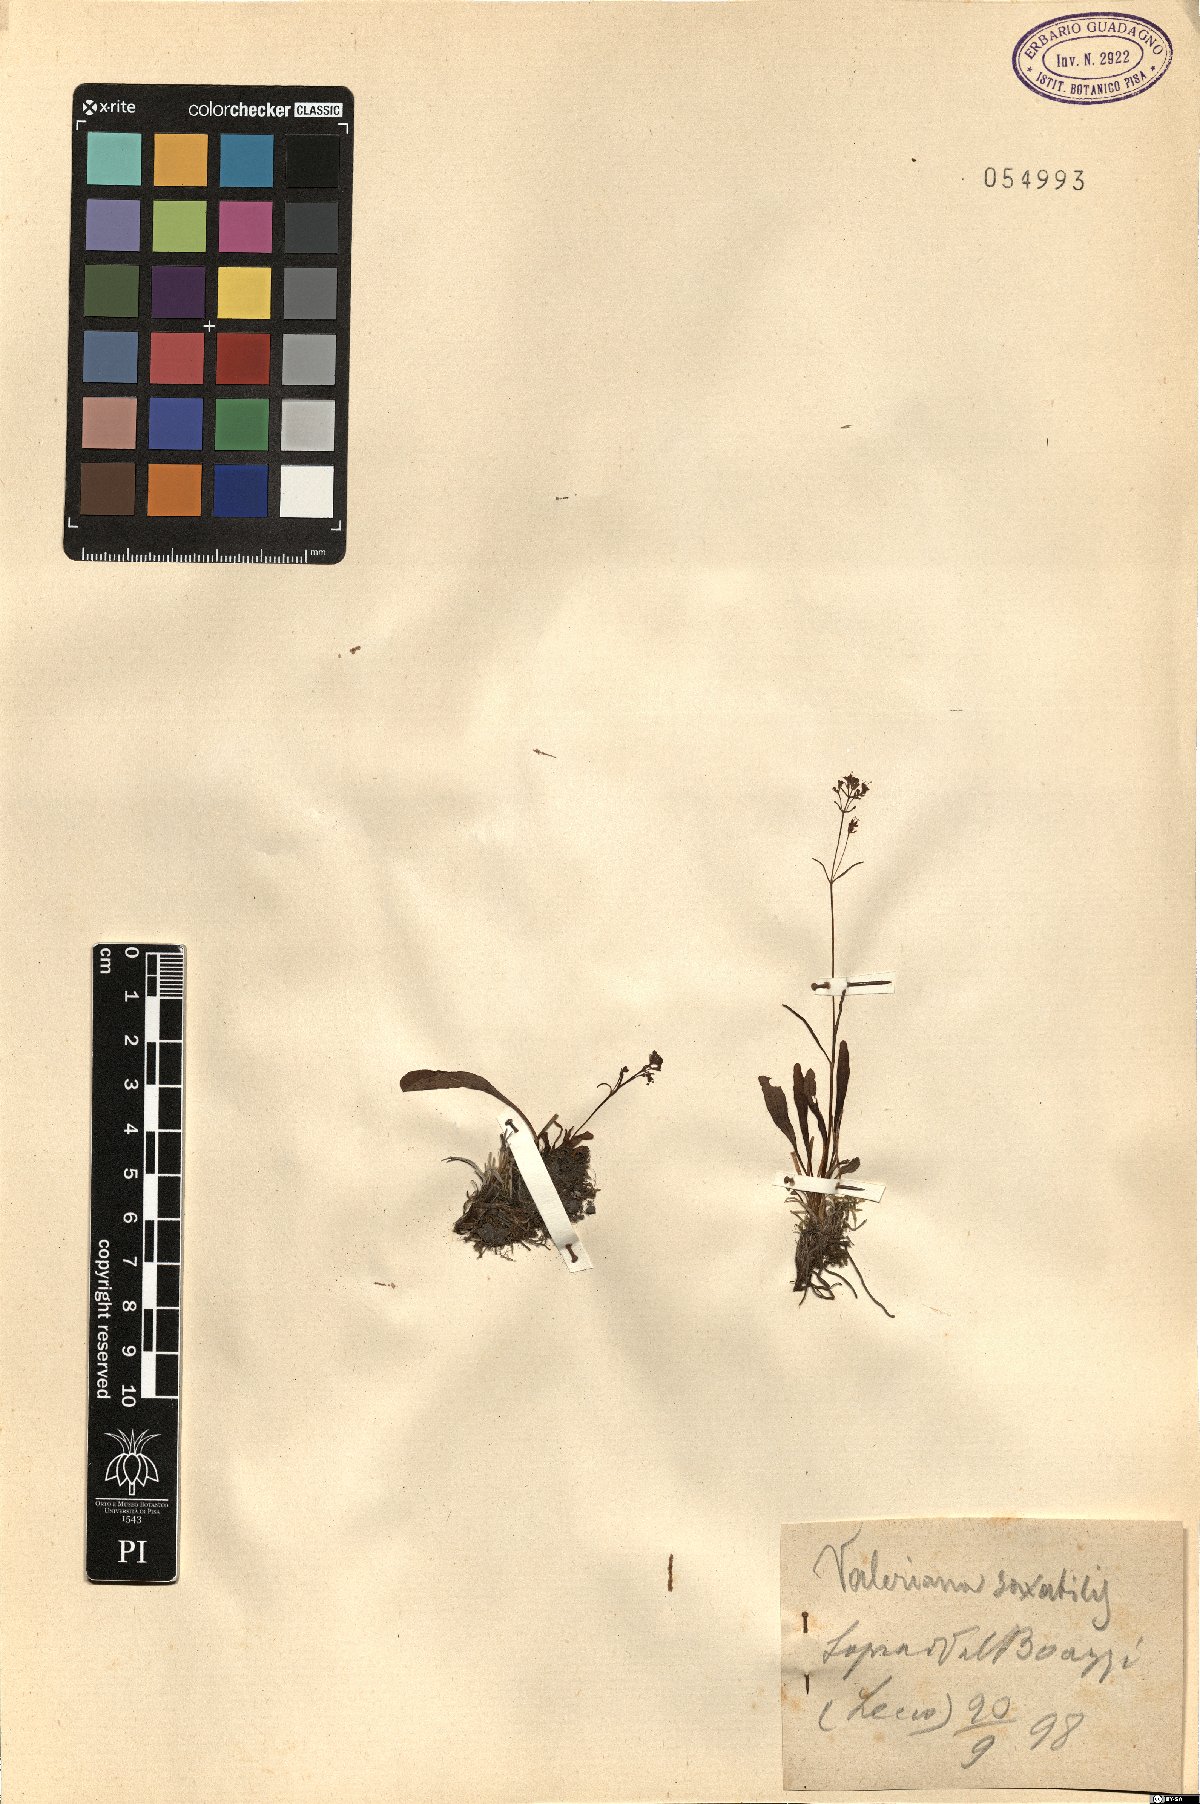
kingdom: Plantae
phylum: Tracheophyta
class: Magnoliopsida
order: Dipsacales
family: Caprifoliaceae
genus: Valeriana
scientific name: Valeriana saxatilis
